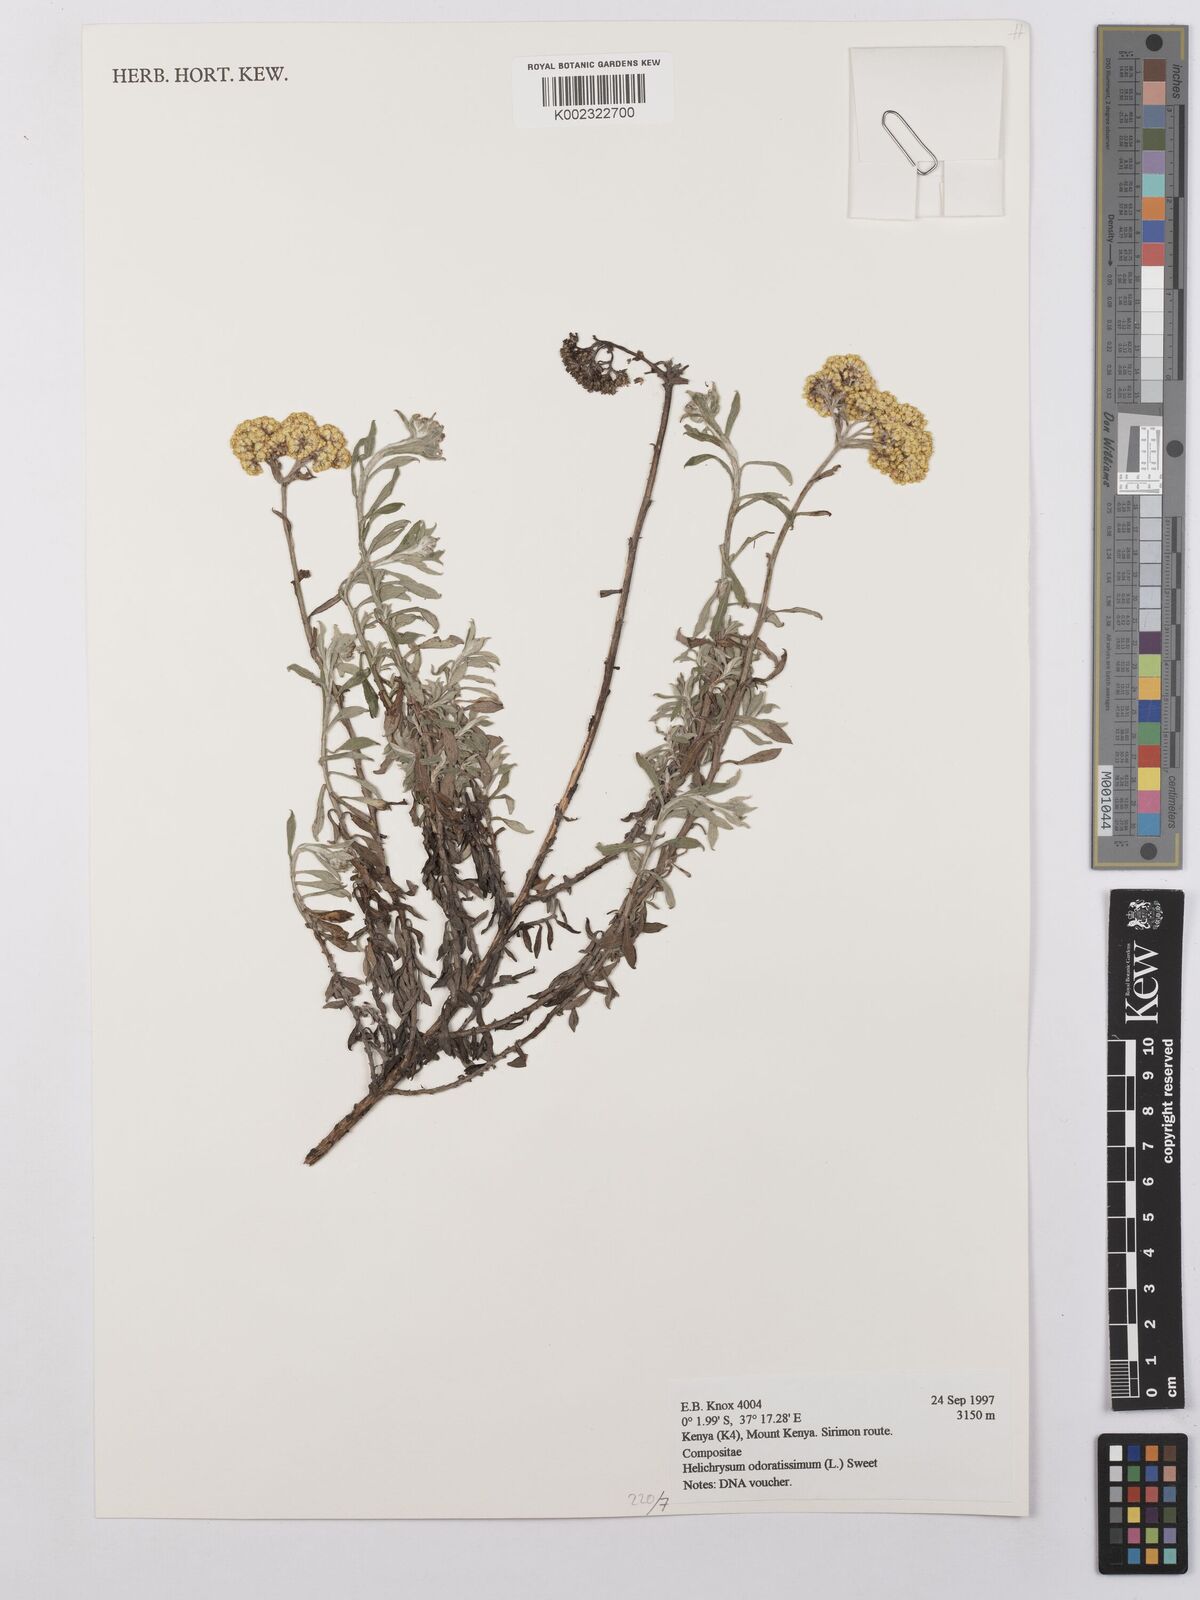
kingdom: Plantae
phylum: Tracheophyta
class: Magnoliopsida
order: Asterales
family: Asteraceae
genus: Helichrysum
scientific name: Helichrysum odoratissimum
